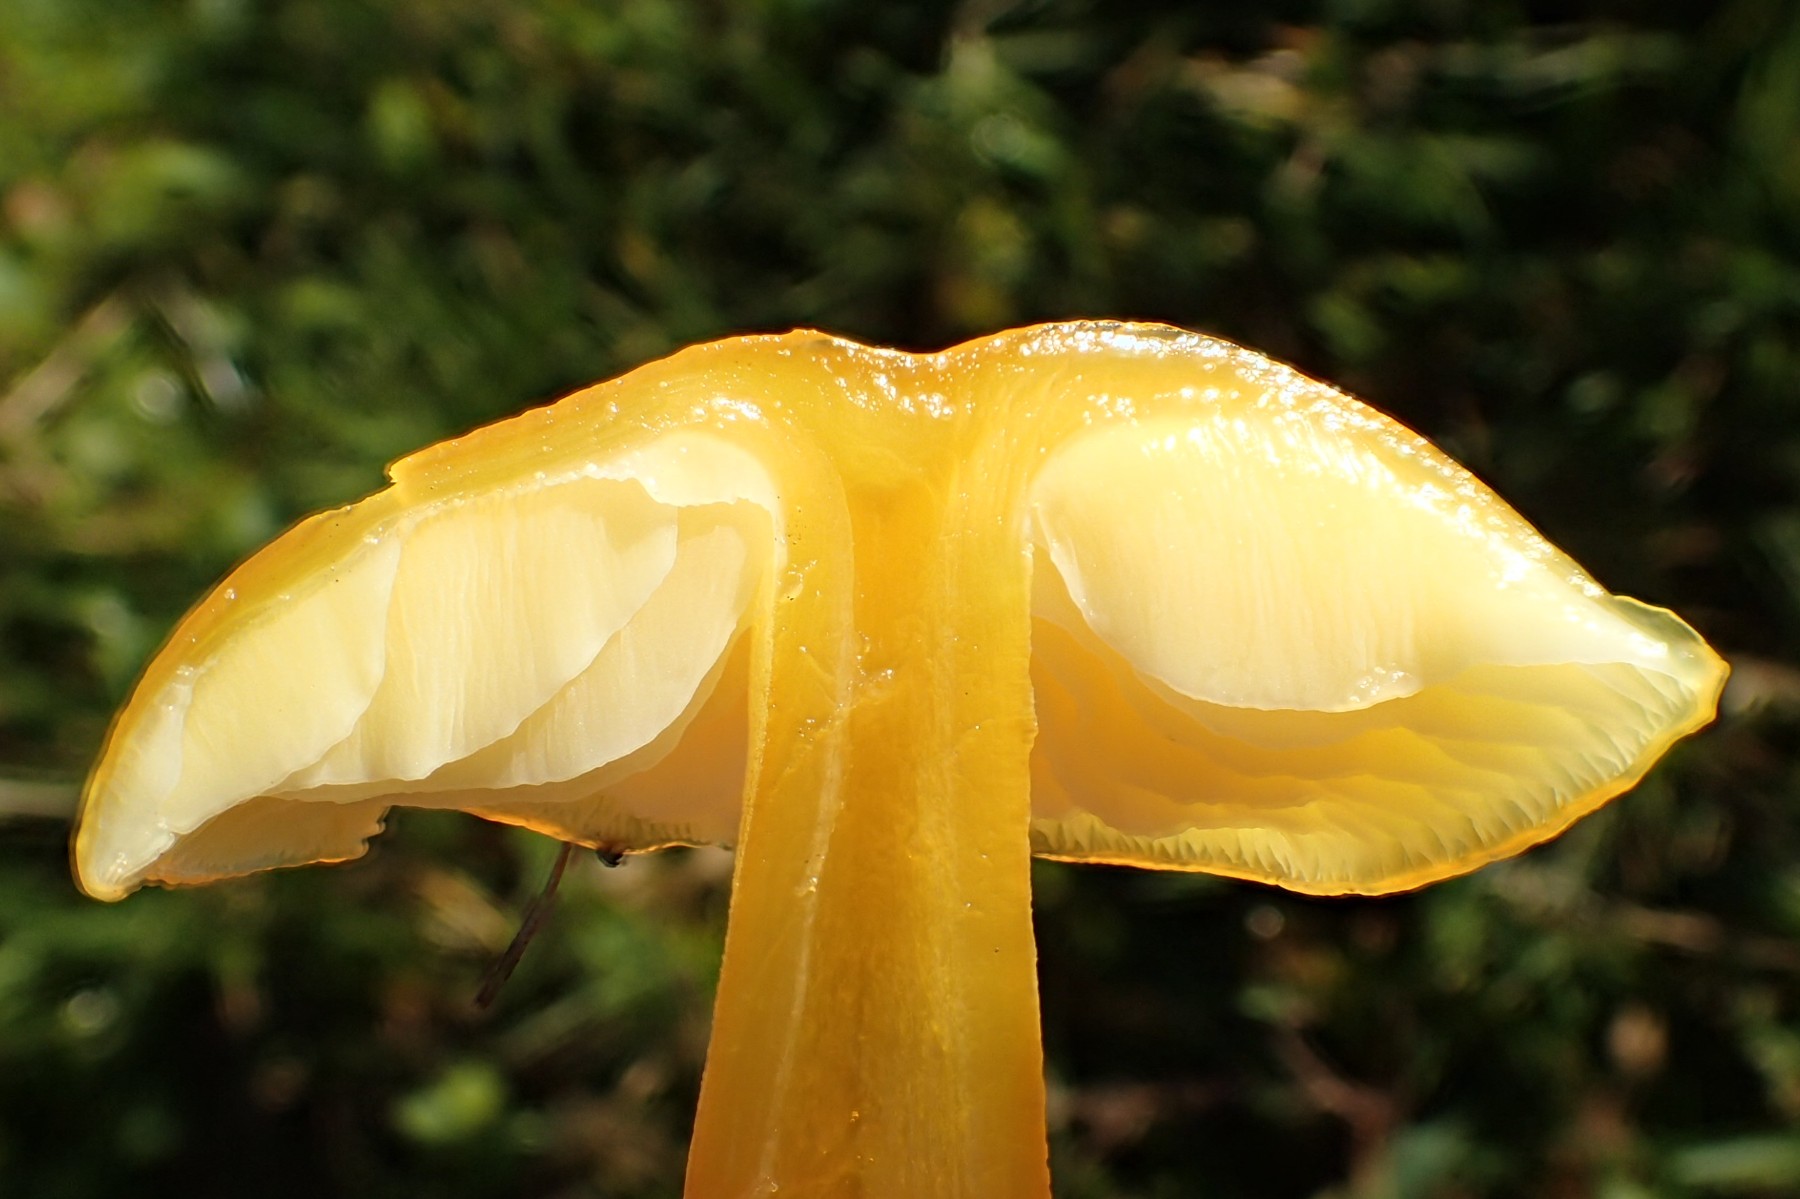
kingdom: Fungi
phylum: Basidiomycota
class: Agaricomycetes
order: Agaricales
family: Hygrophoraceae
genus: Hygrocybe
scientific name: Hygrocybe chlorophana
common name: gul vokshat
